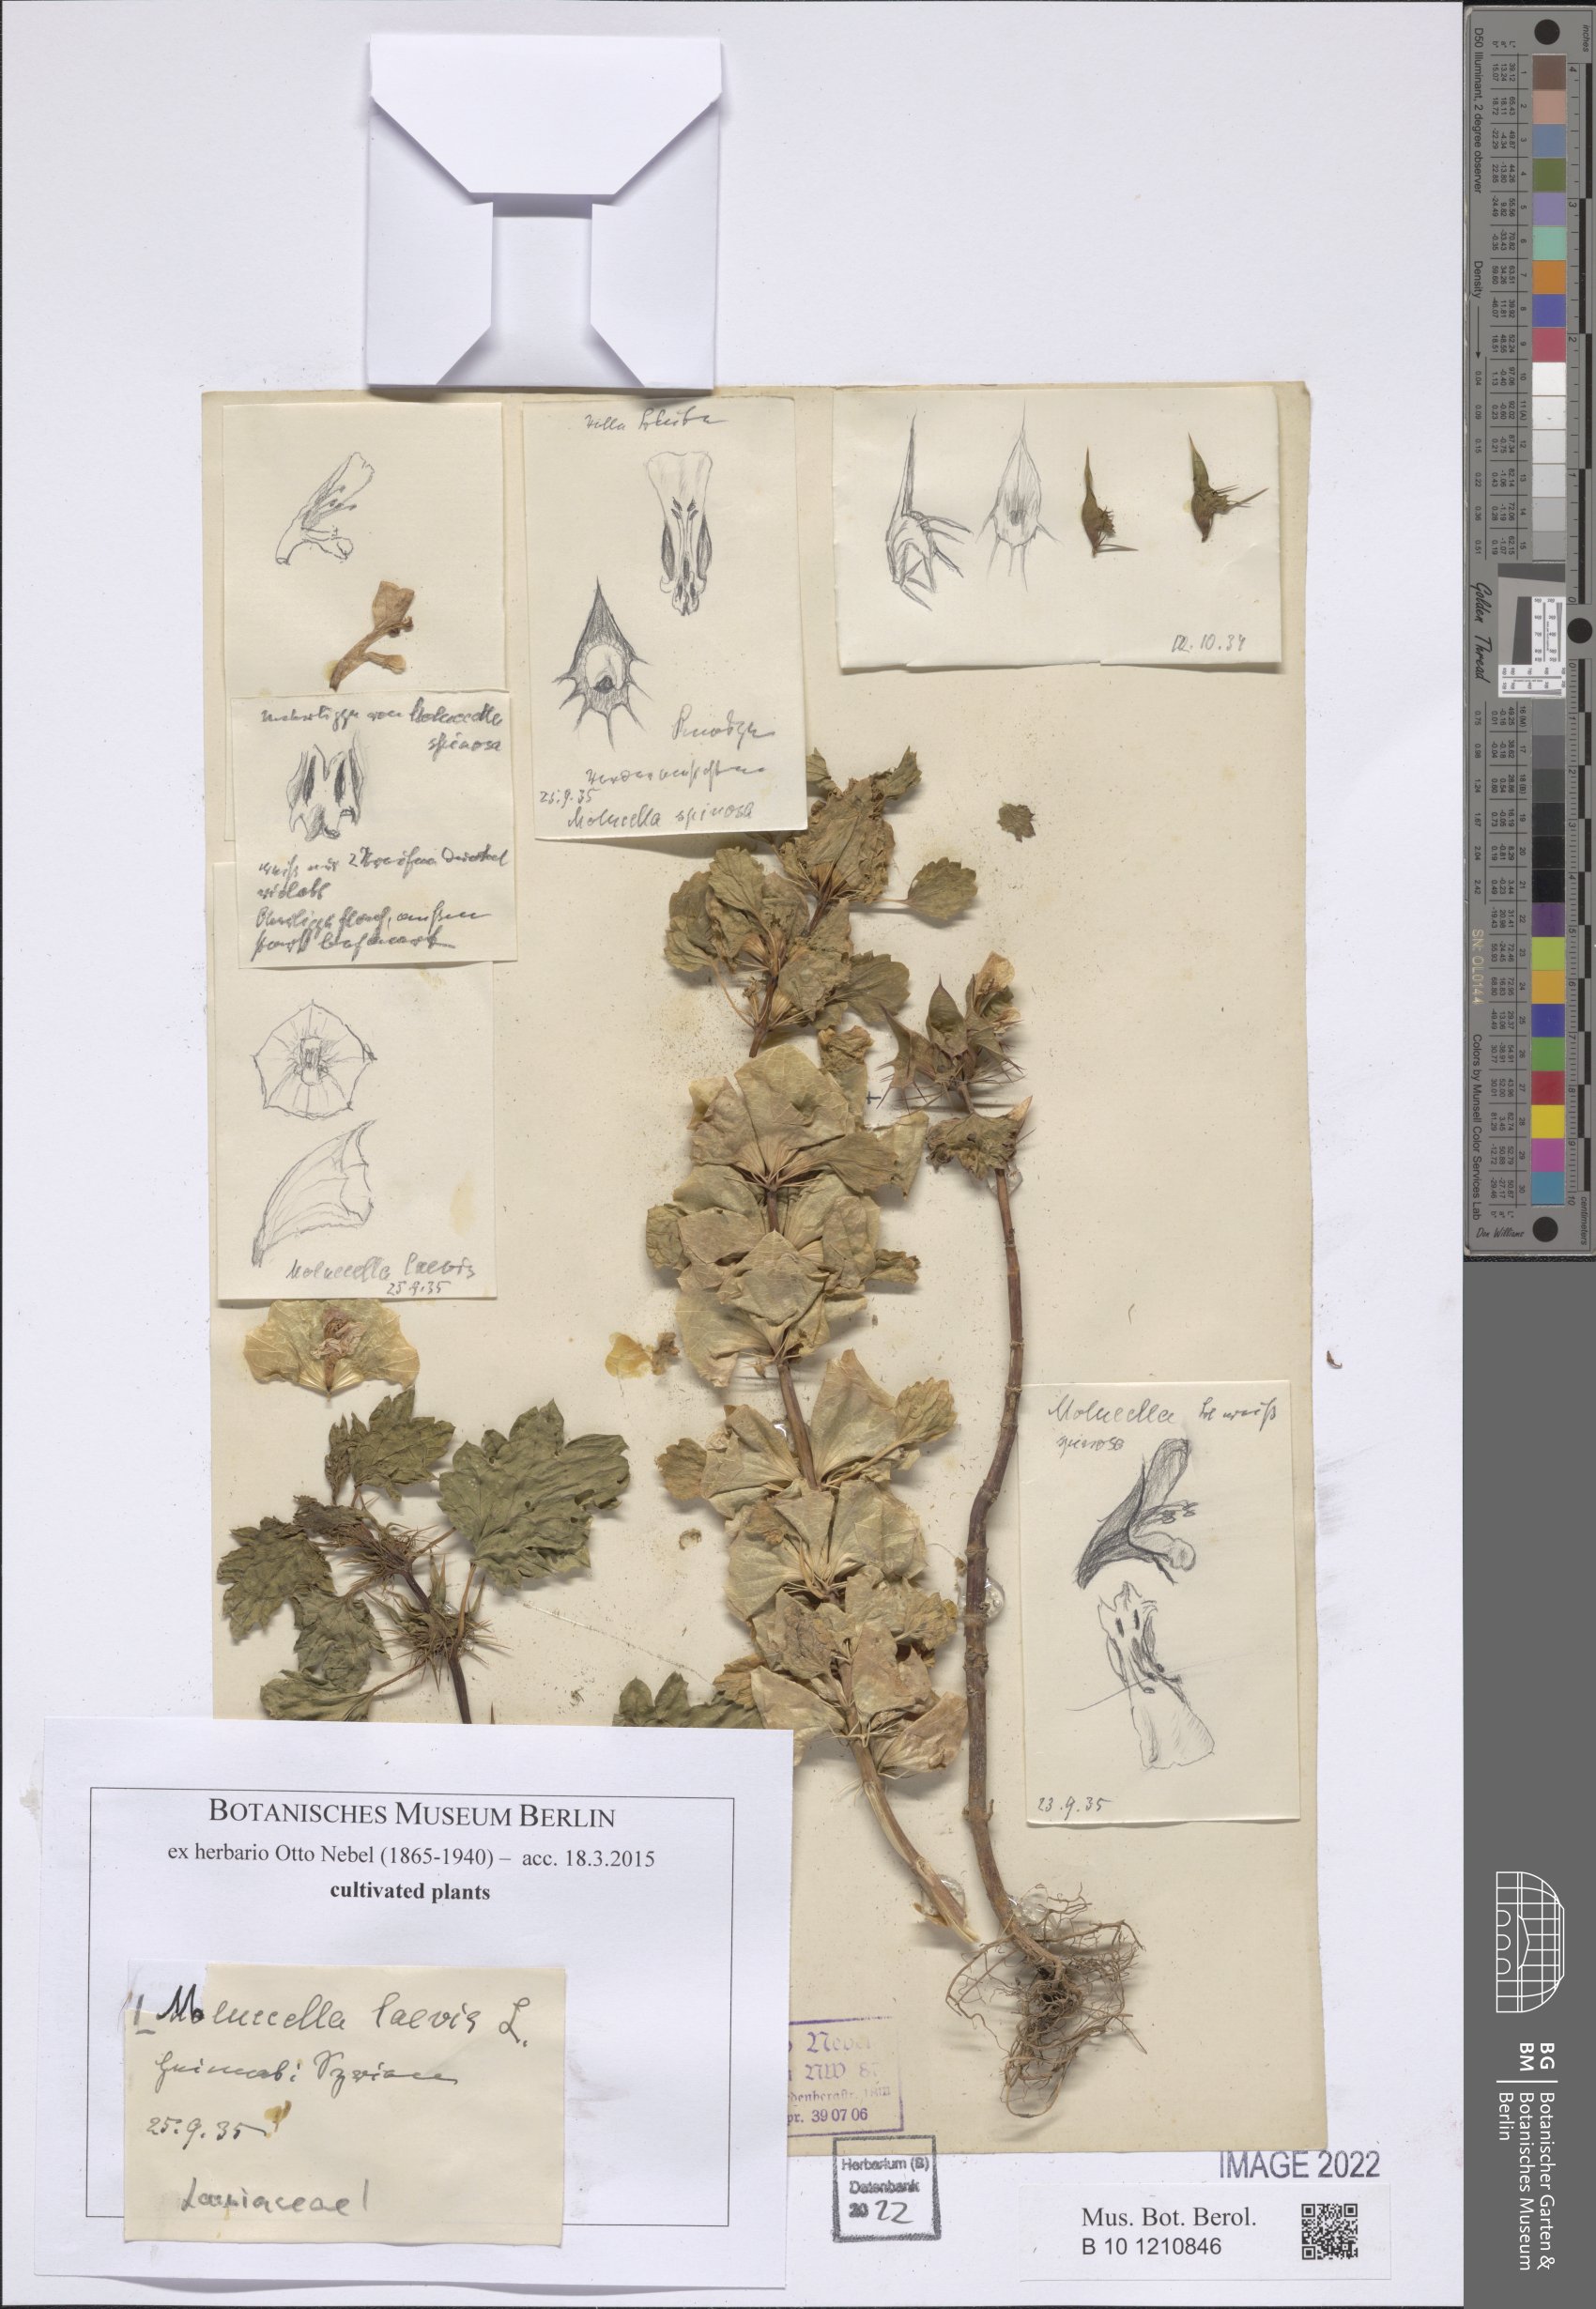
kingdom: Plantae
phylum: Tracheophyta
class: Magnoliopsida
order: Lamiales
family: Lamiaceae
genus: Moluccella
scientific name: Moluccella laevis
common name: Shellflower
